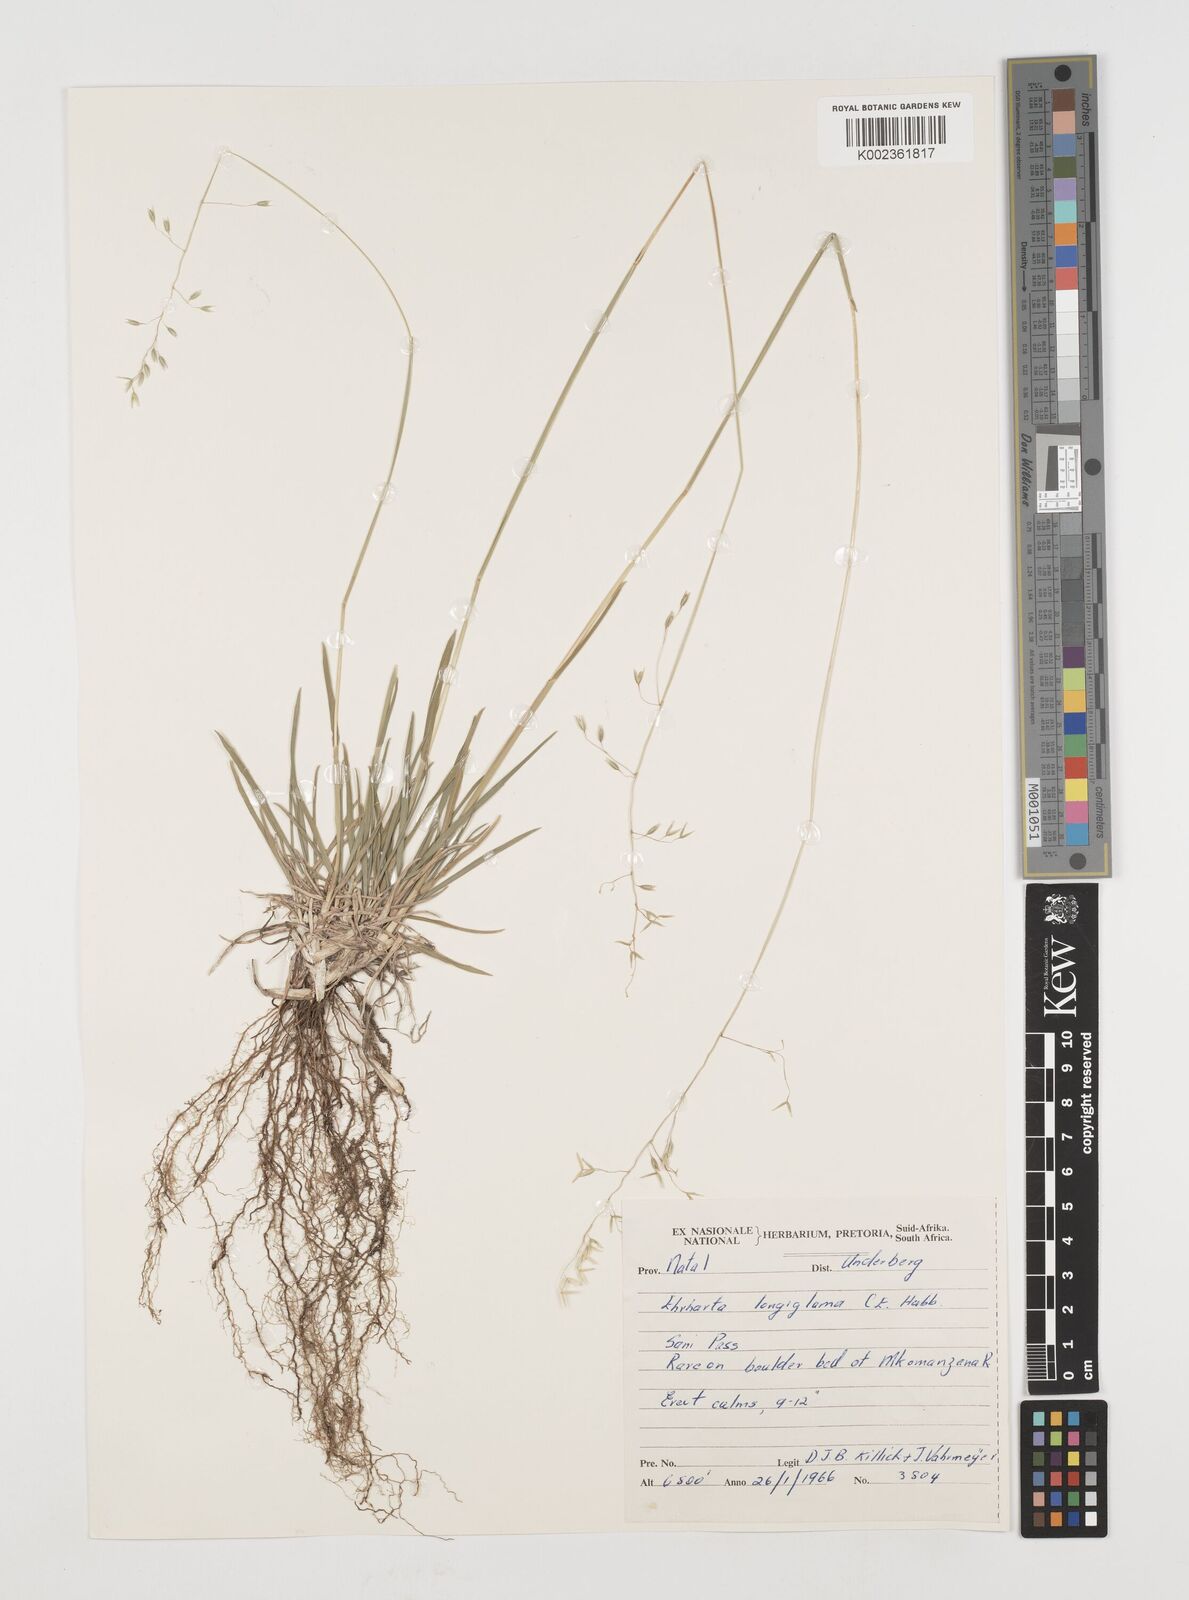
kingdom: Plantae
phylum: Tracheophyta
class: Liliopsida
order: Poales
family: Poaceae
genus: Ehrharta
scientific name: Ehrharta longigluma
